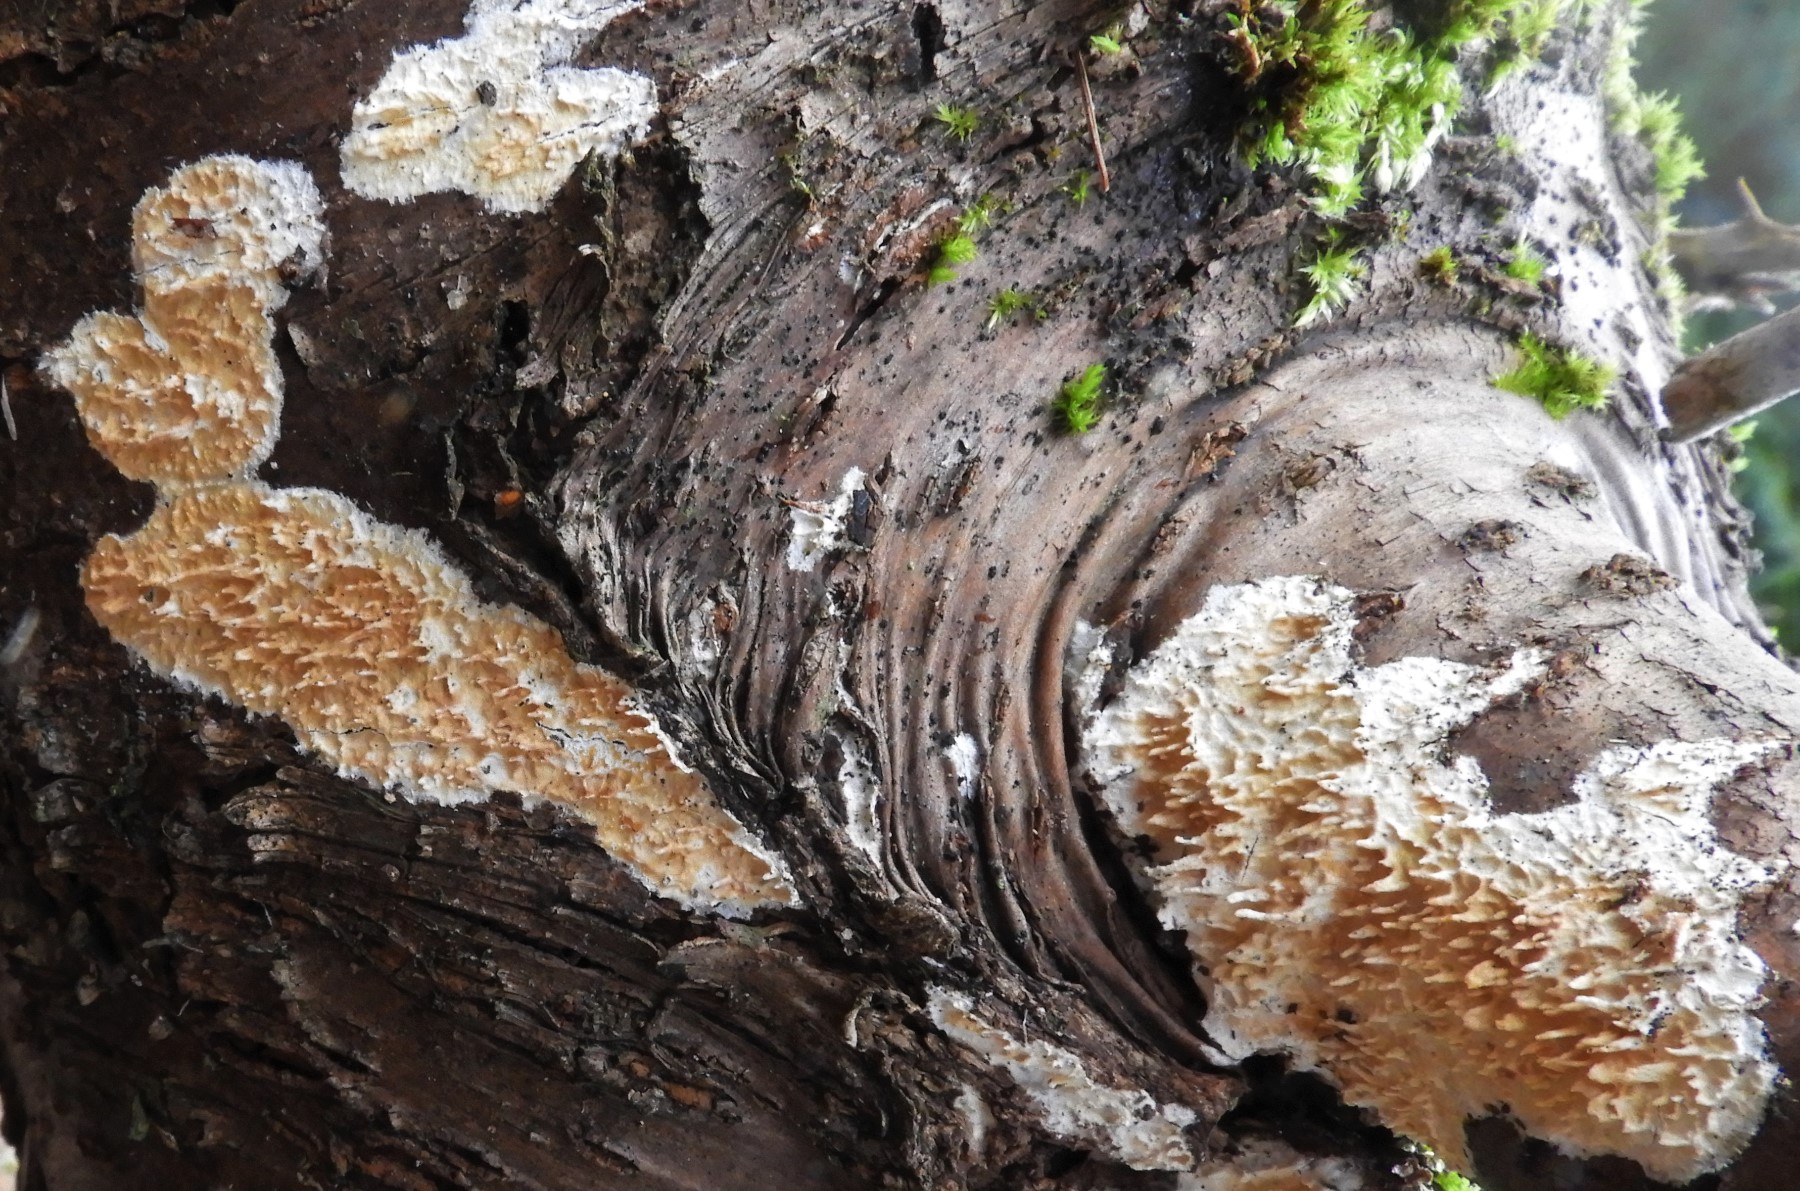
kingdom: Fungi
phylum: Basidiomycota
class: Agaricomycetes
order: Hymenochaetales
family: Schizoporaceae
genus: Xylodon
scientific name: Xylodon radula
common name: grovtandet kalkskind
